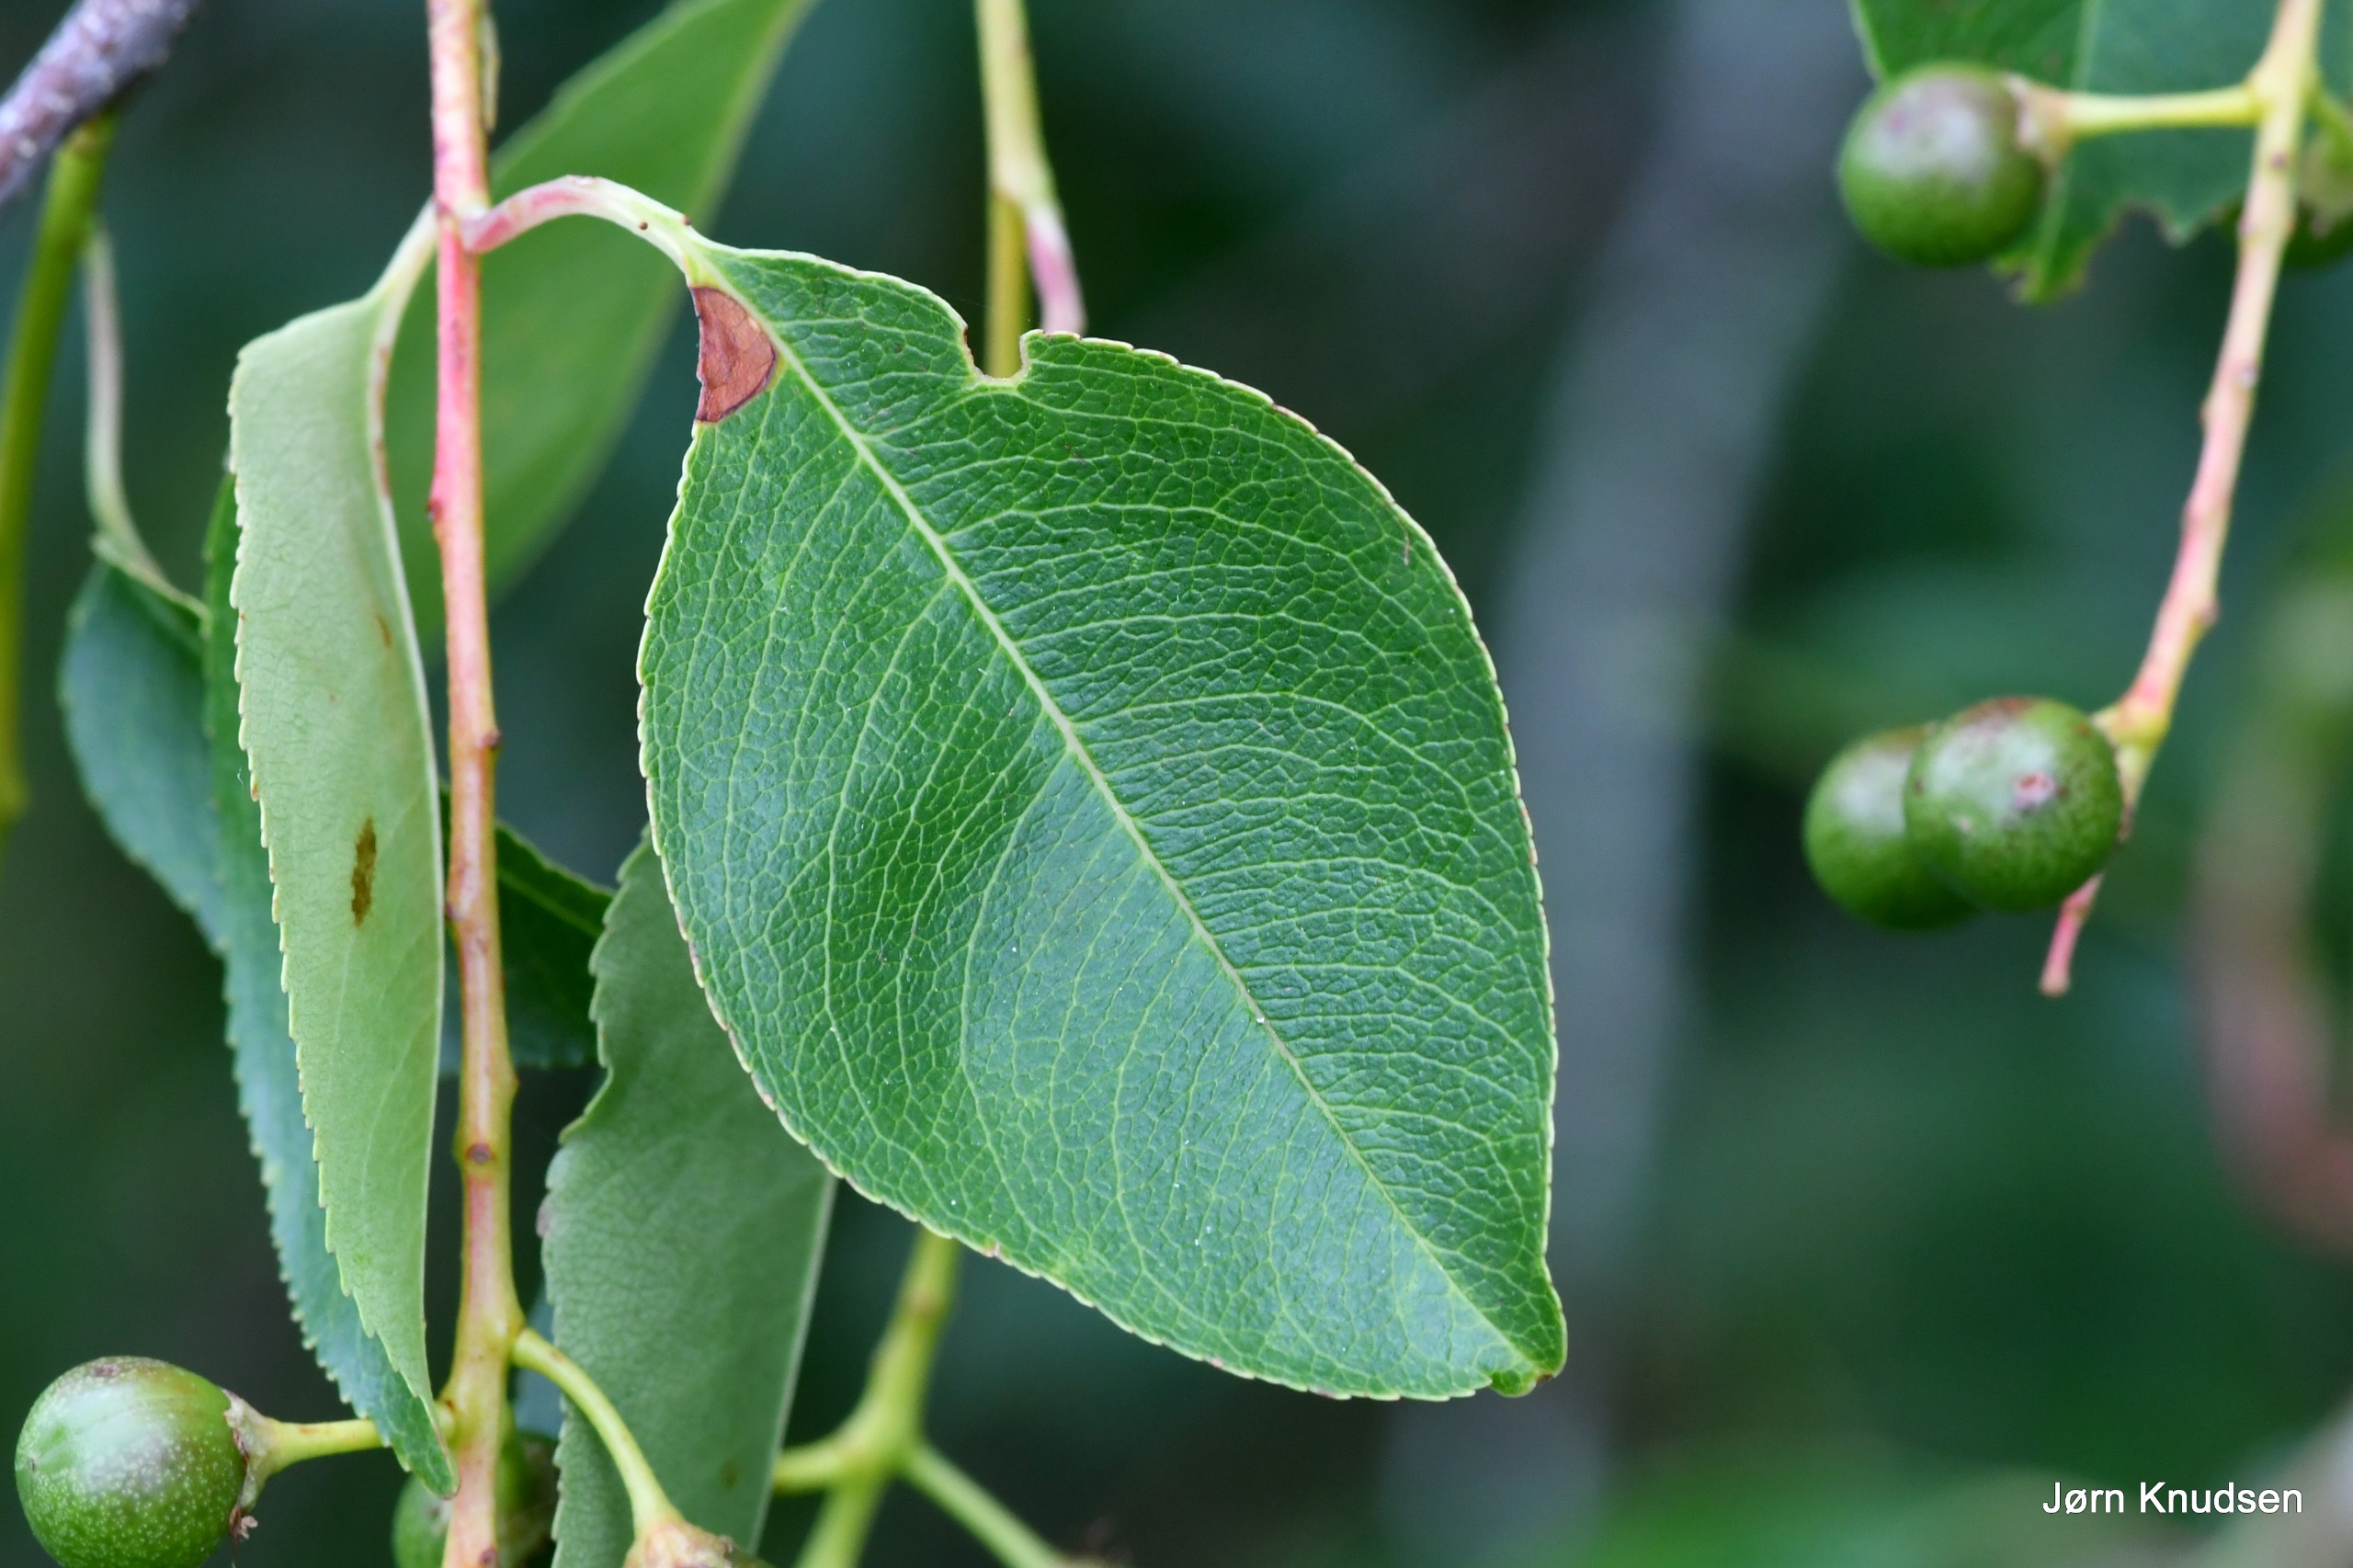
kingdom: Plantae
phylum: Tracheophyta
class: Magnoliopsida
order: Rosales
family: Rosaceae
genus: Prunus
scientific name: Prunus serotina
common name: Glansbladet hæg
